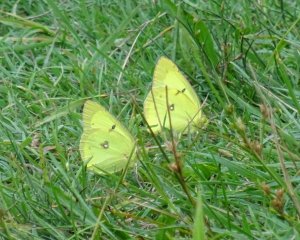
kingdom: Animalia
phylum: Arthropoda
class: Insecta
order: Lepidoptera
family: Pieridae
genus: Colias
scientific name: Colias philodice
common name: Clouded Sulphur
